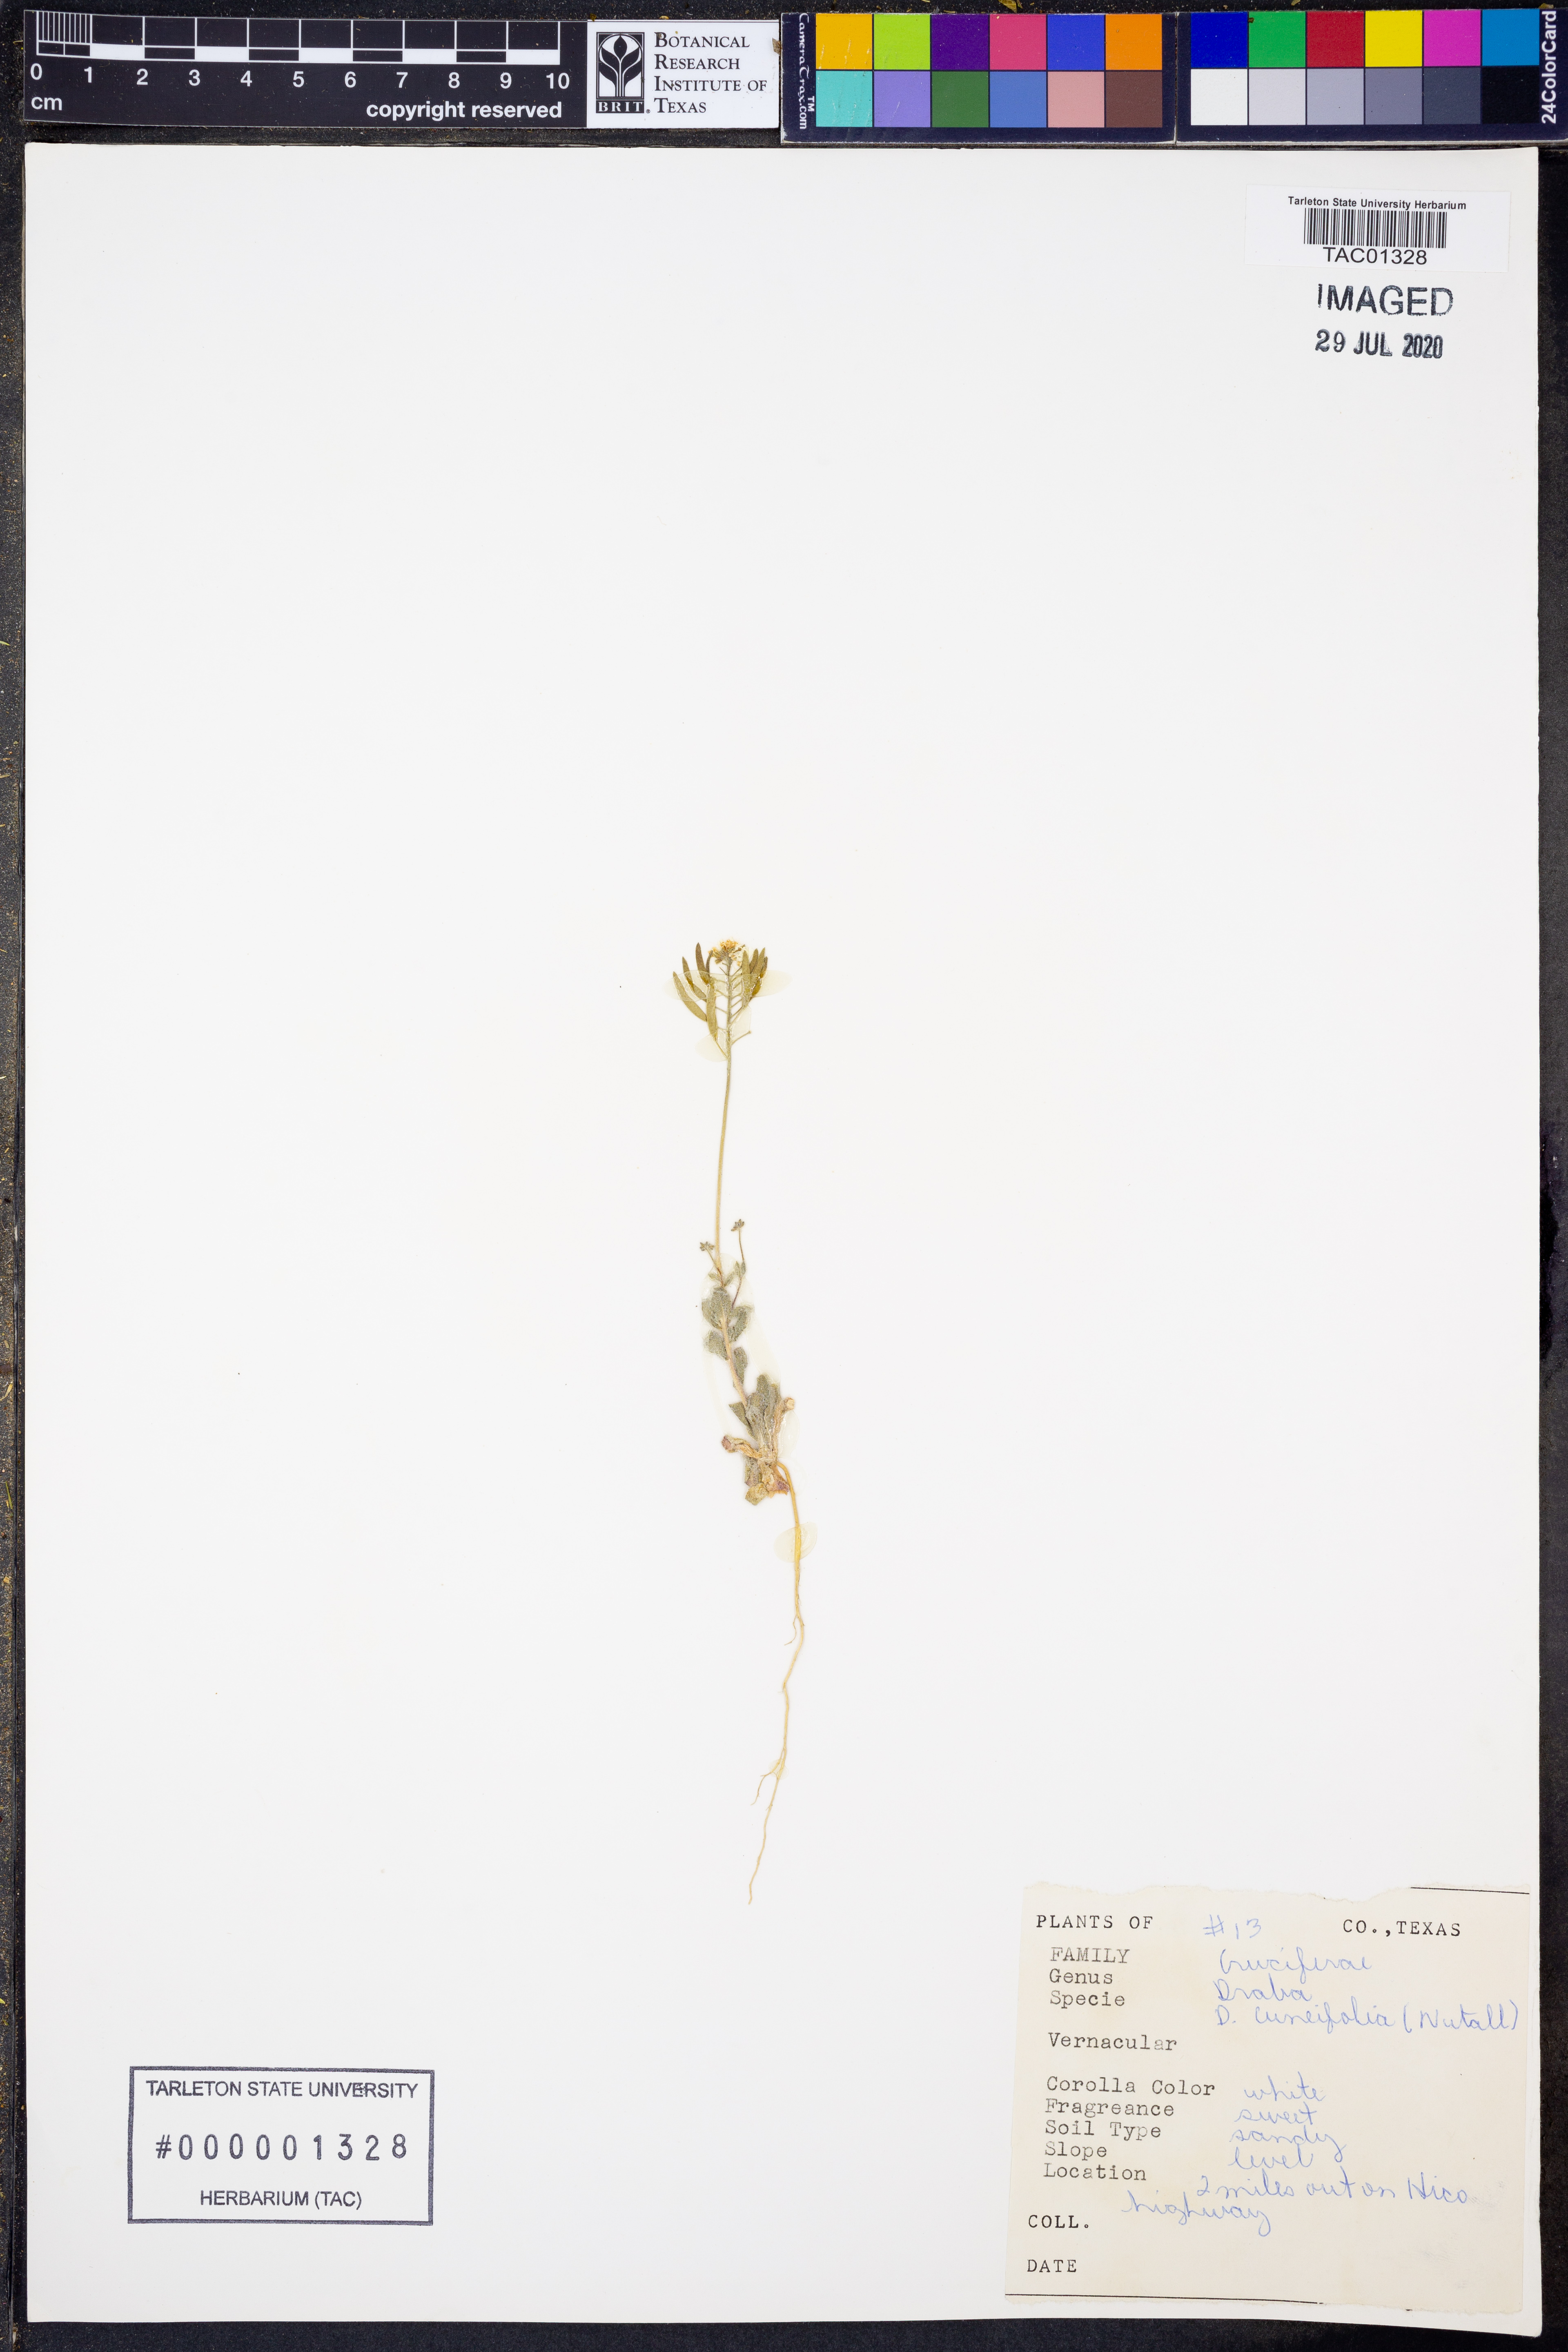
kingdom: Plantae
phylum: Tracheophyta
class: Magnoliopsida
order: Brassicales
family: Brassicaceae
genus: Tomostima
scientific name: Tomostima cuneifolia
